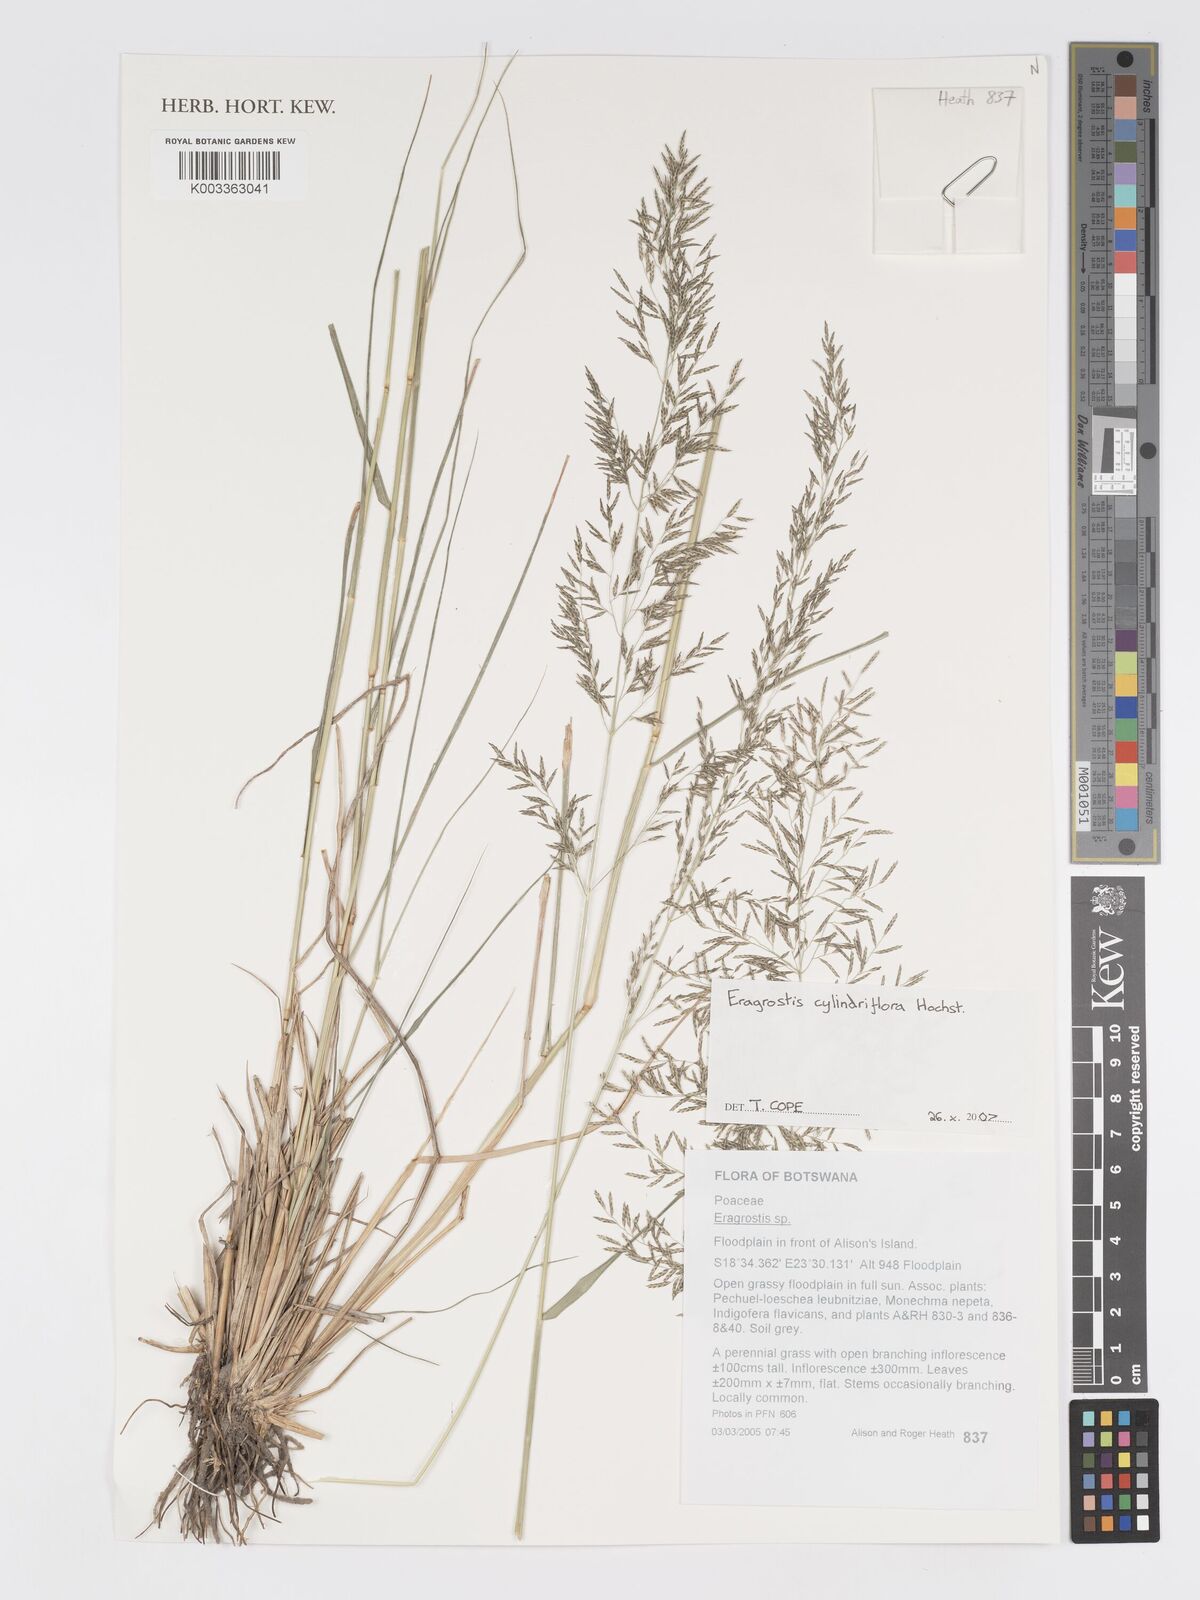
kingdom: Plantae
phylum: Tracheophyta
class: Liliopsida
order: Poales
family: Poaceae
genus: Eragrostis
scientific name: Eragrostis cylindriflora
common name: Cylinderflower lovegrass
